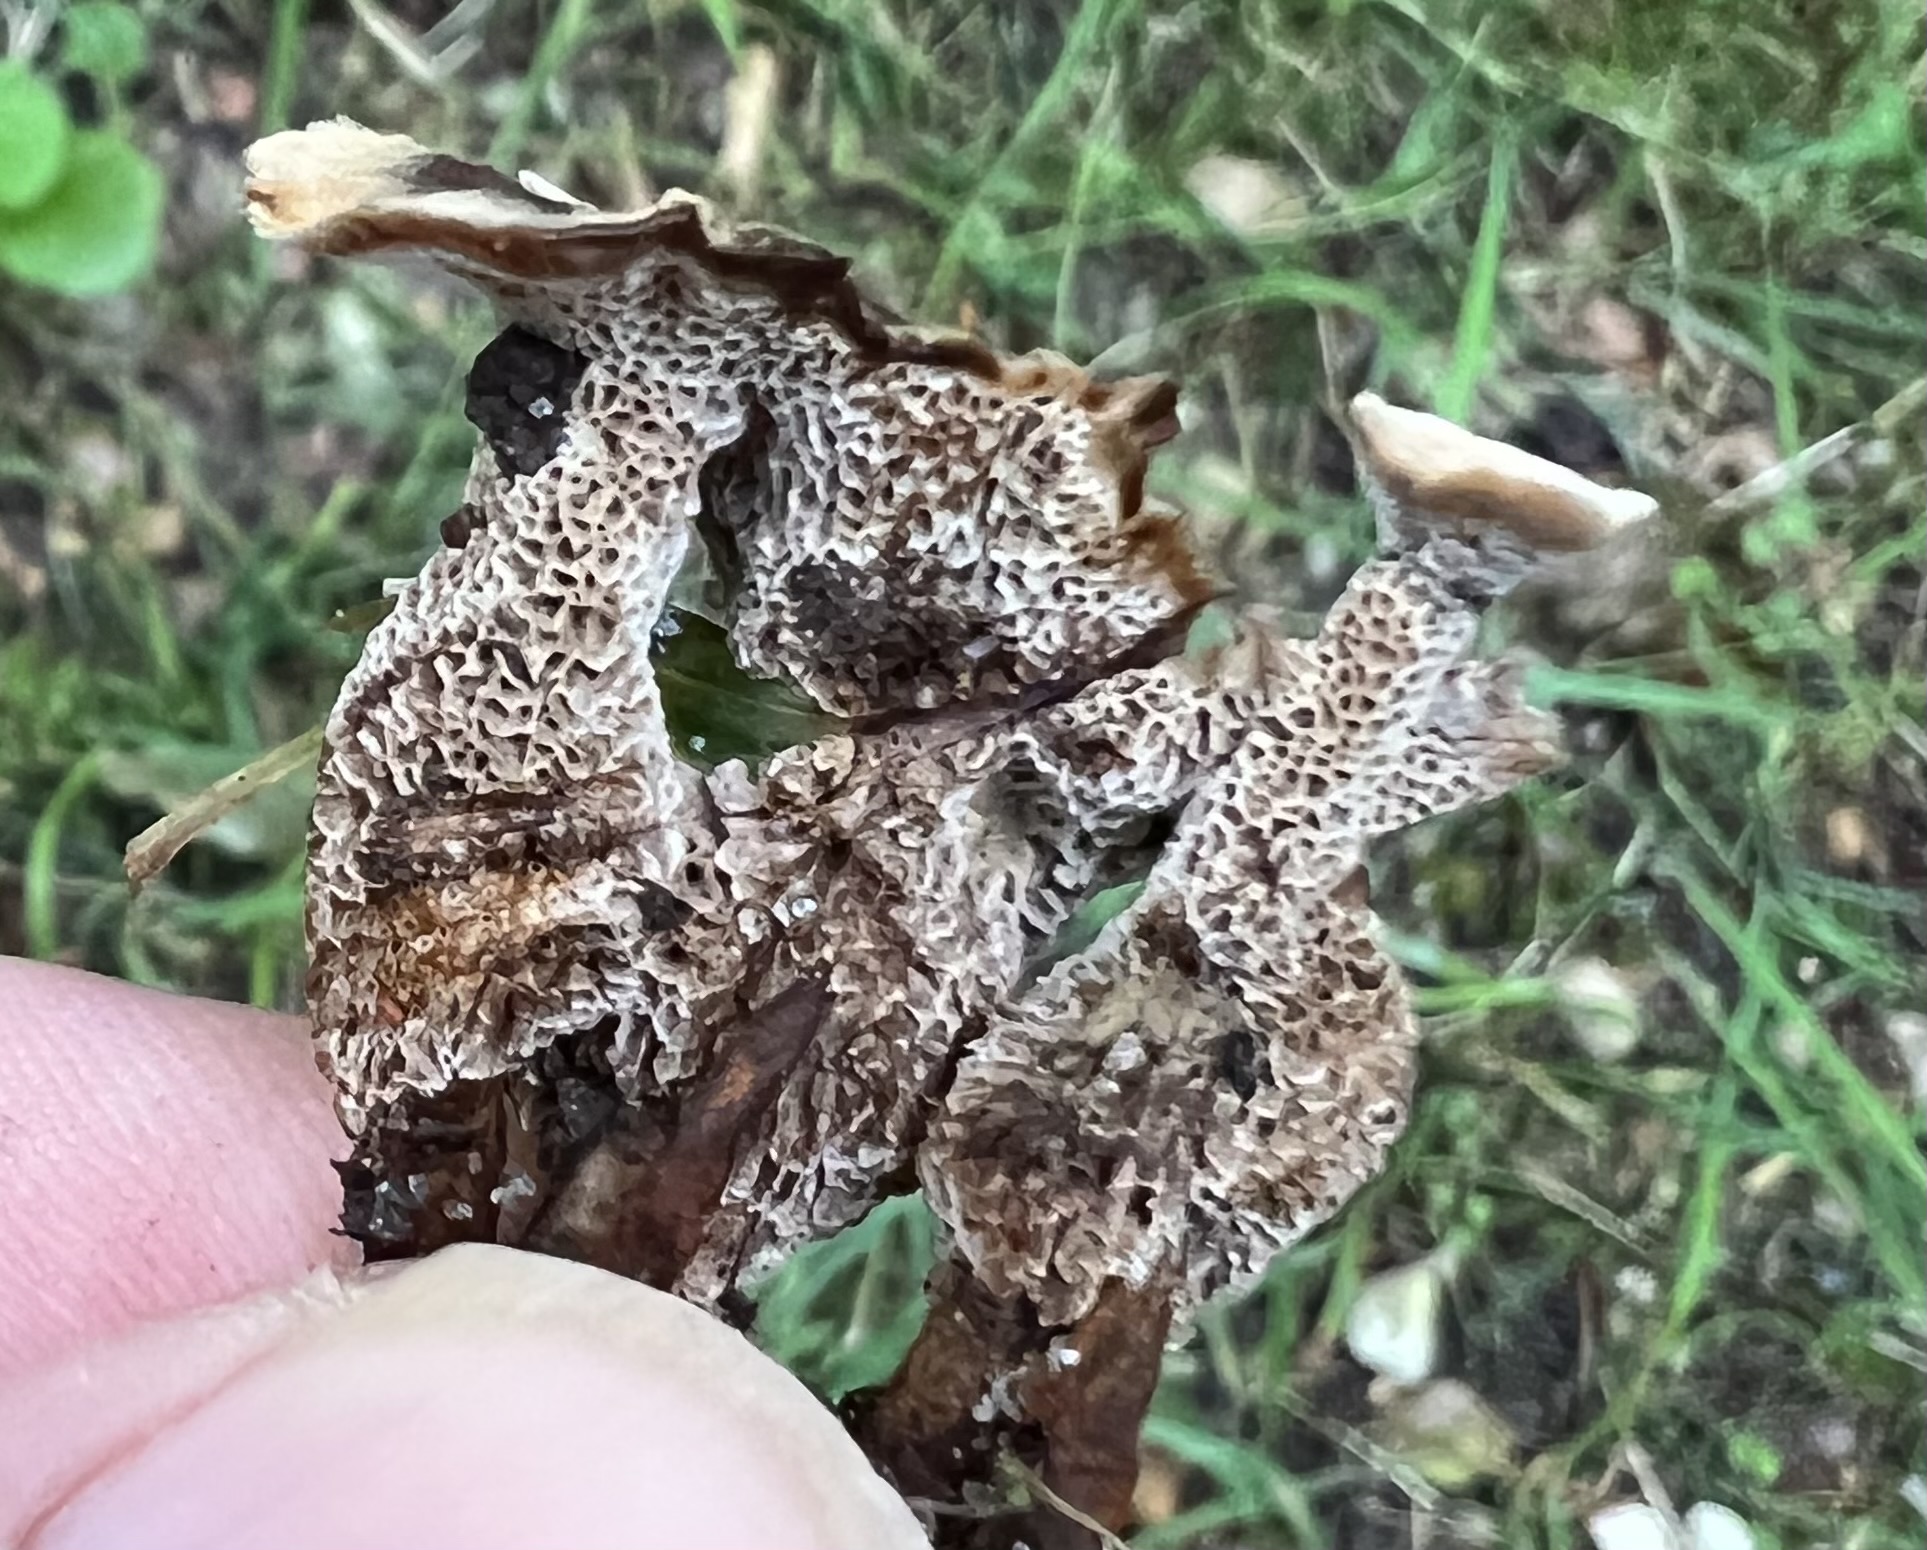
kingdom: Fungi
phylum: Basidiomycota
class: Agaricomycetes
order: Hymenochaetales
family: Hymenochaetaceae
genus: Coltricia
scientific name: Coltricia confluens
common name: park-sandporesvamp
